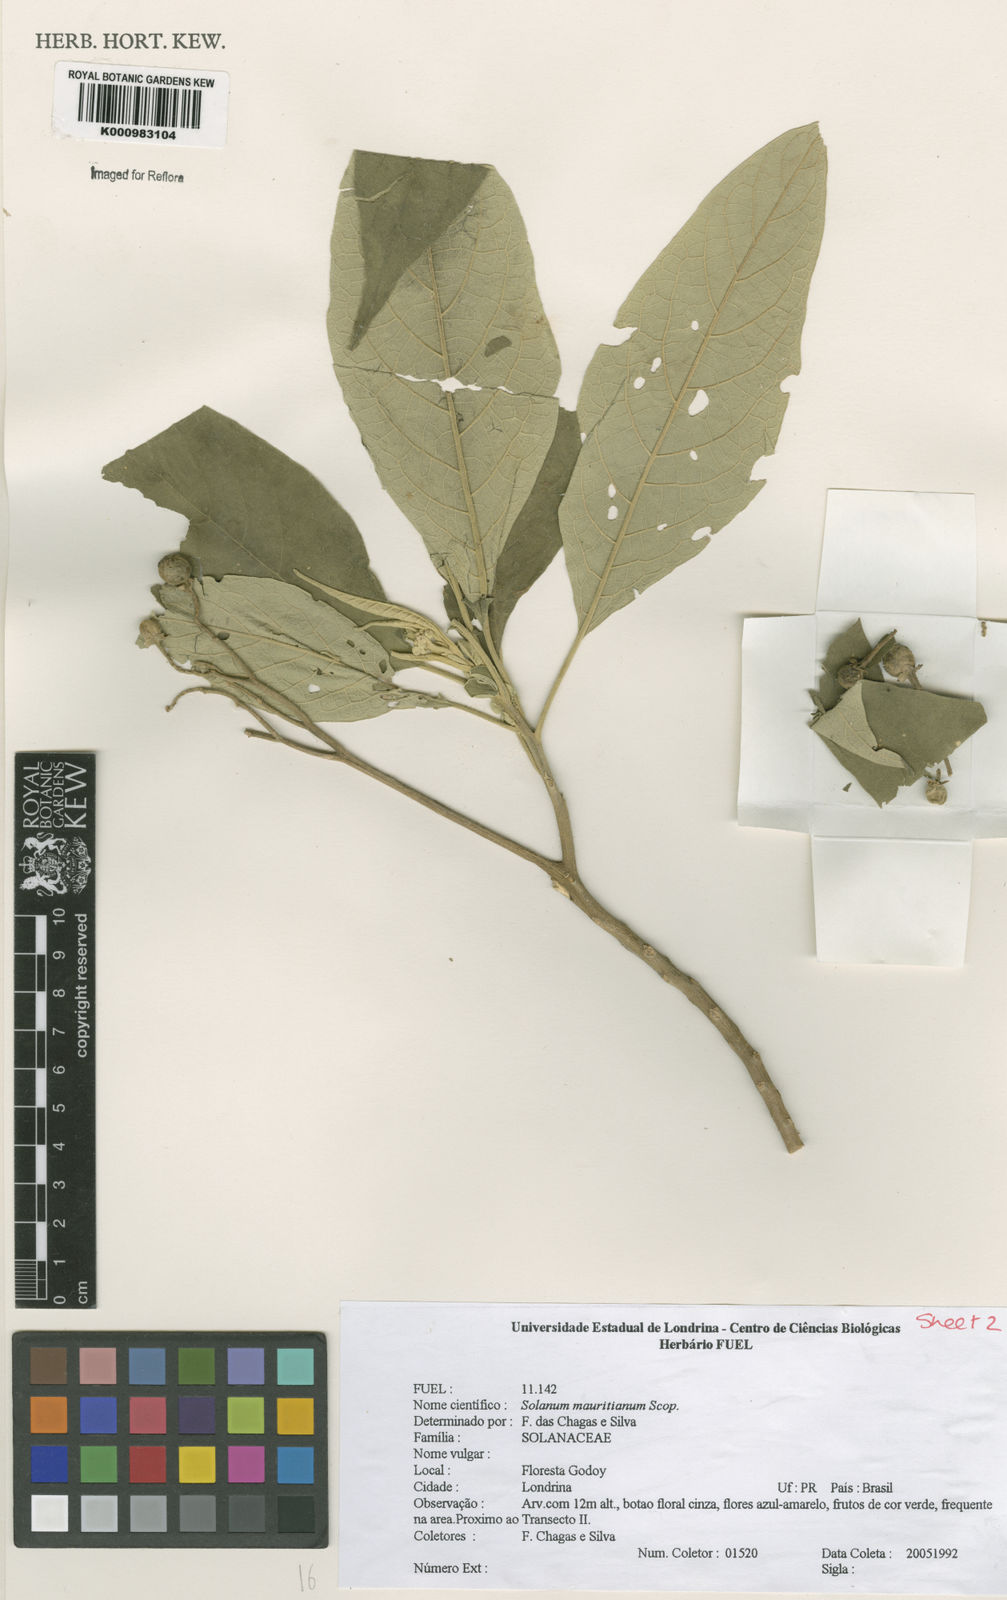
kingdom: Plantae
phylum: Tracheophyta
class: Magnoliopsida
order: Solanales
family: Solanaceae
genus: Solanum
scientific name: Solanum mauritianum
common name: Earleaf nightshade
